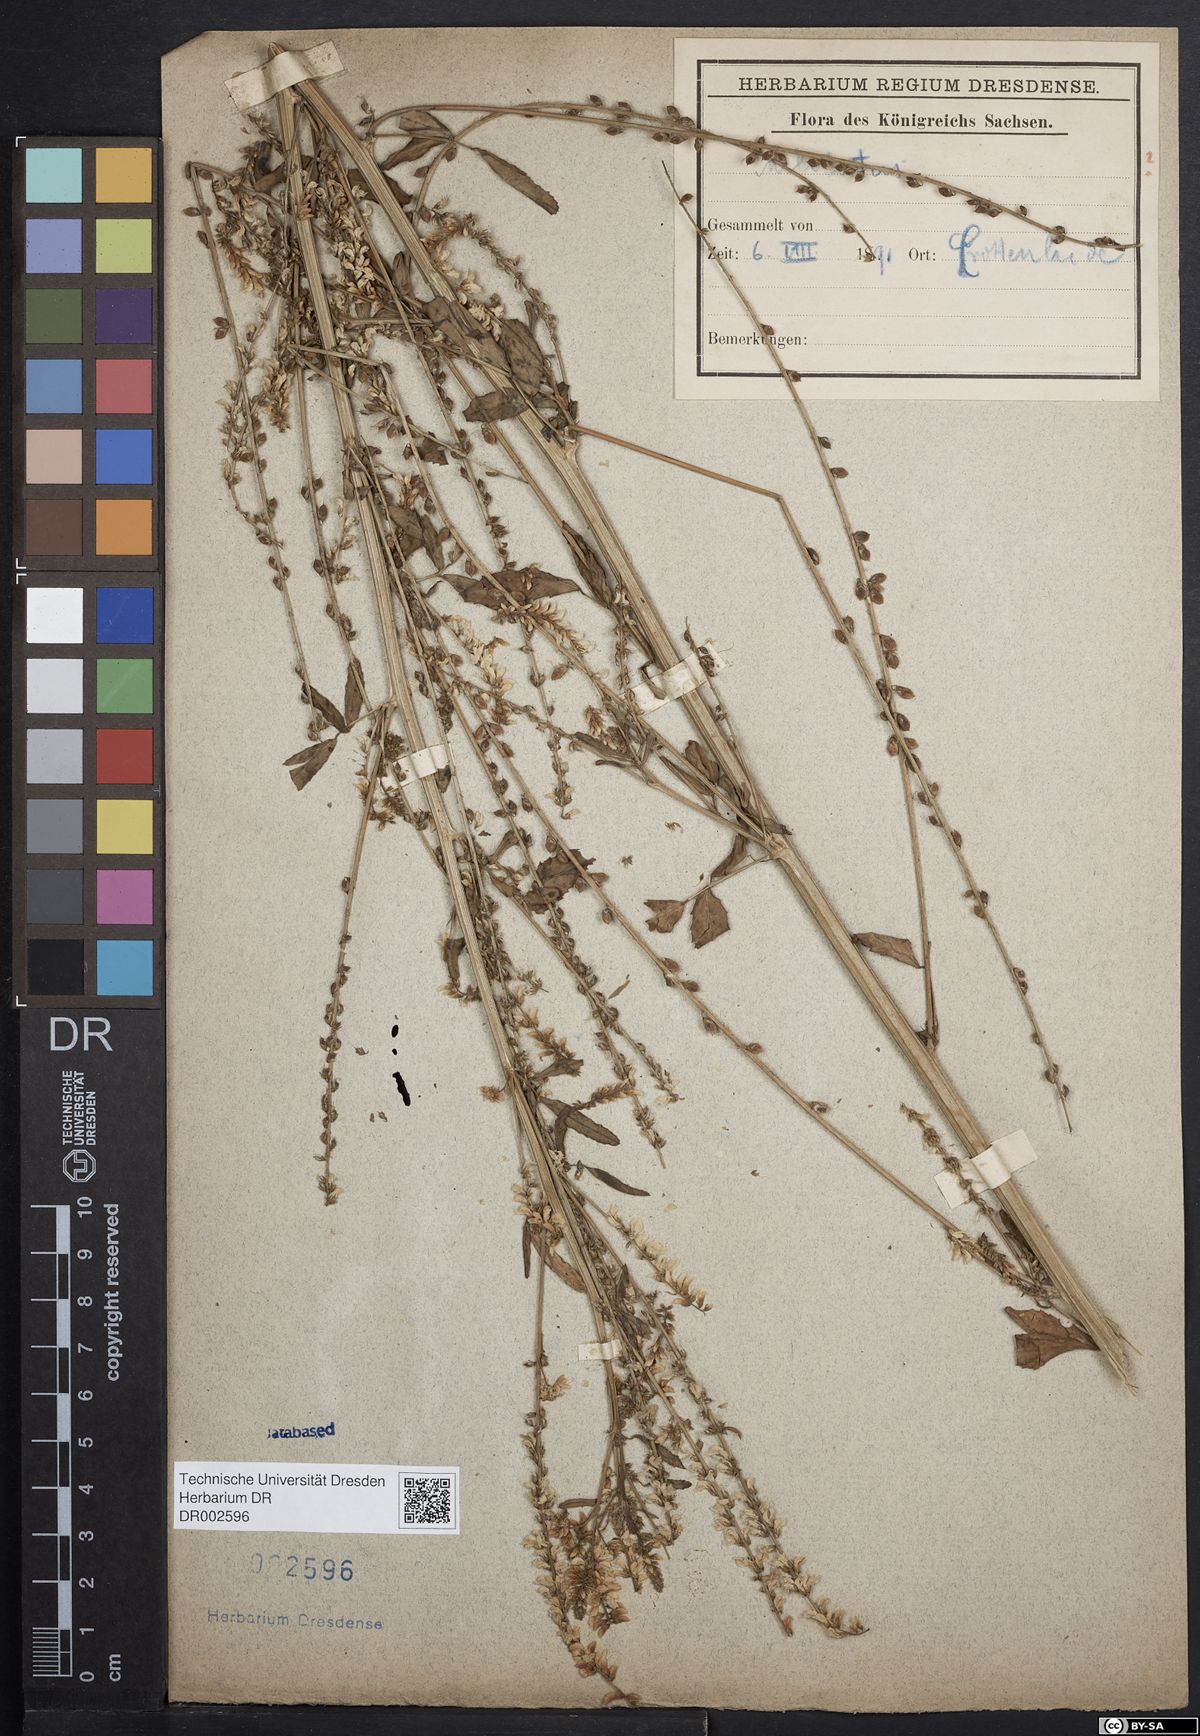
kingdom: Plantae
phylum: Tracheophyta
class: Magnoliopsida
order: Fabales
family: Fabaceae
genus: Melilotus
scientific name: Melilotus albus
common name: White melilot
